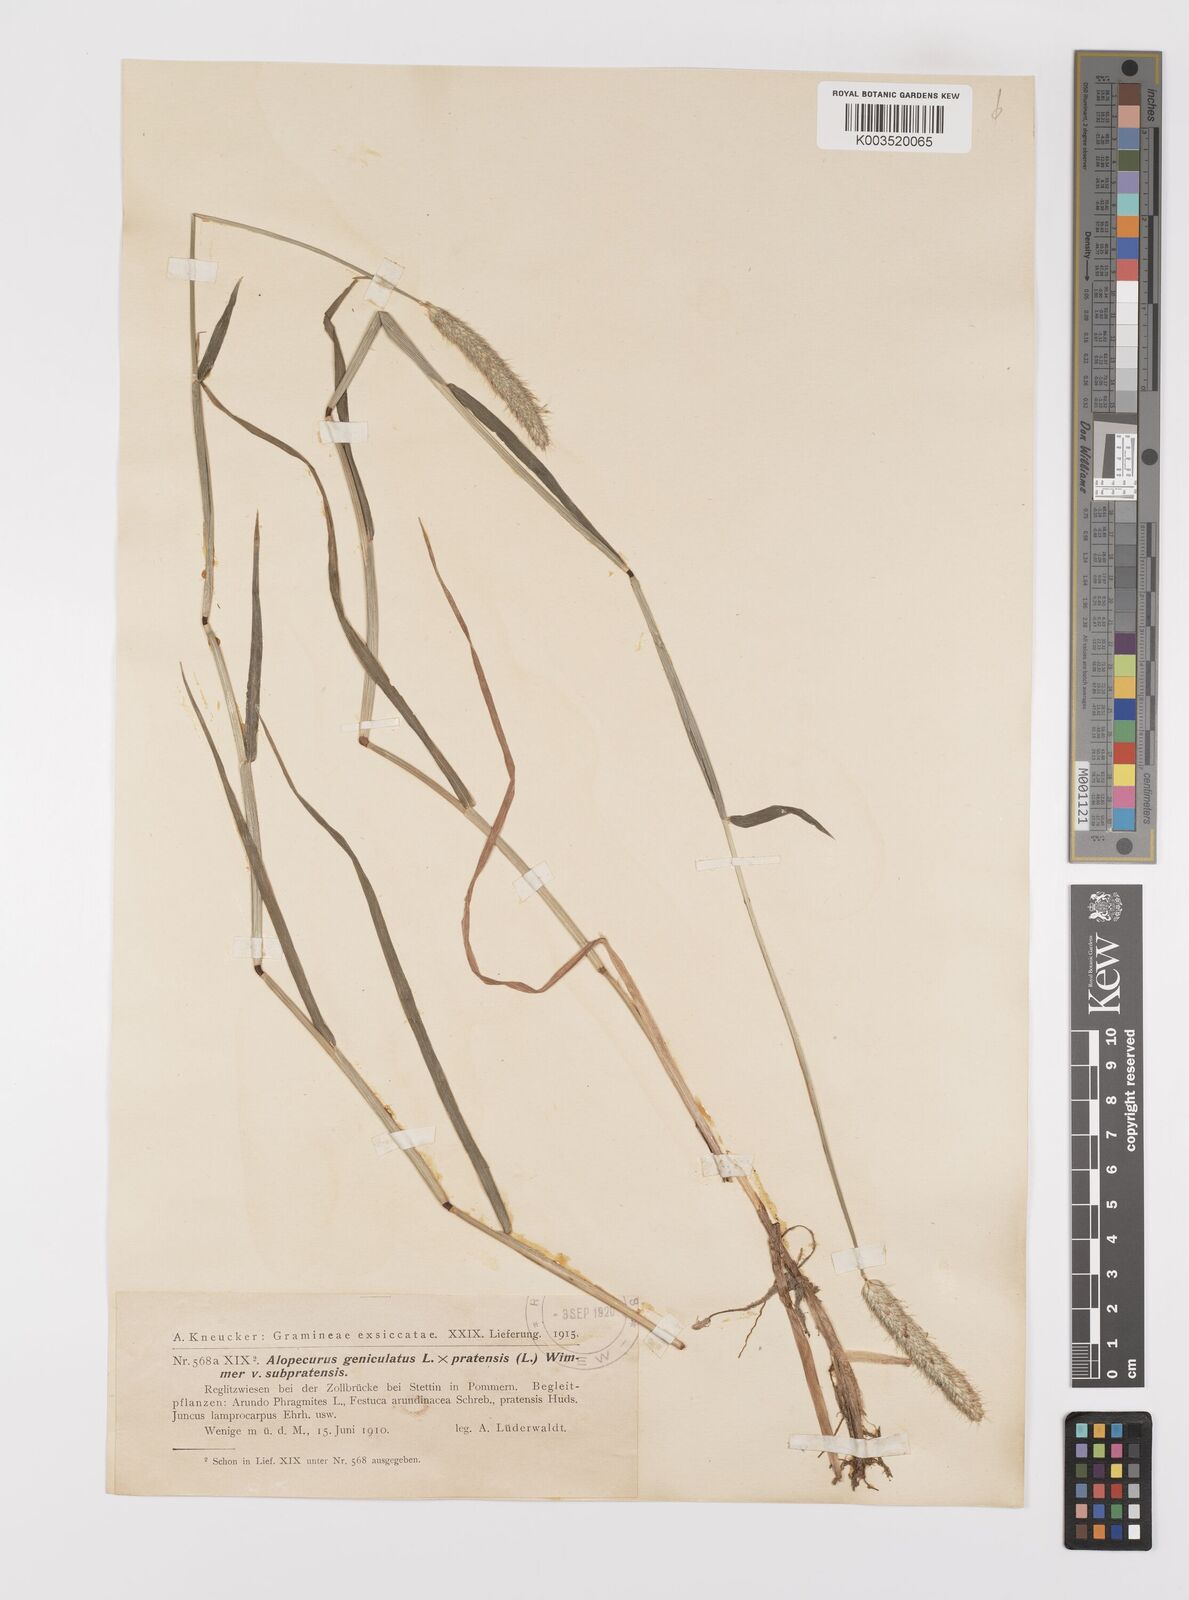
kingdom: Plantae
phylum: Tracheophyta
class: Liliopsida
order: Poales
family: Poaceae
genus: Alopecurus
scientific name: Alopecurus brachystylus
